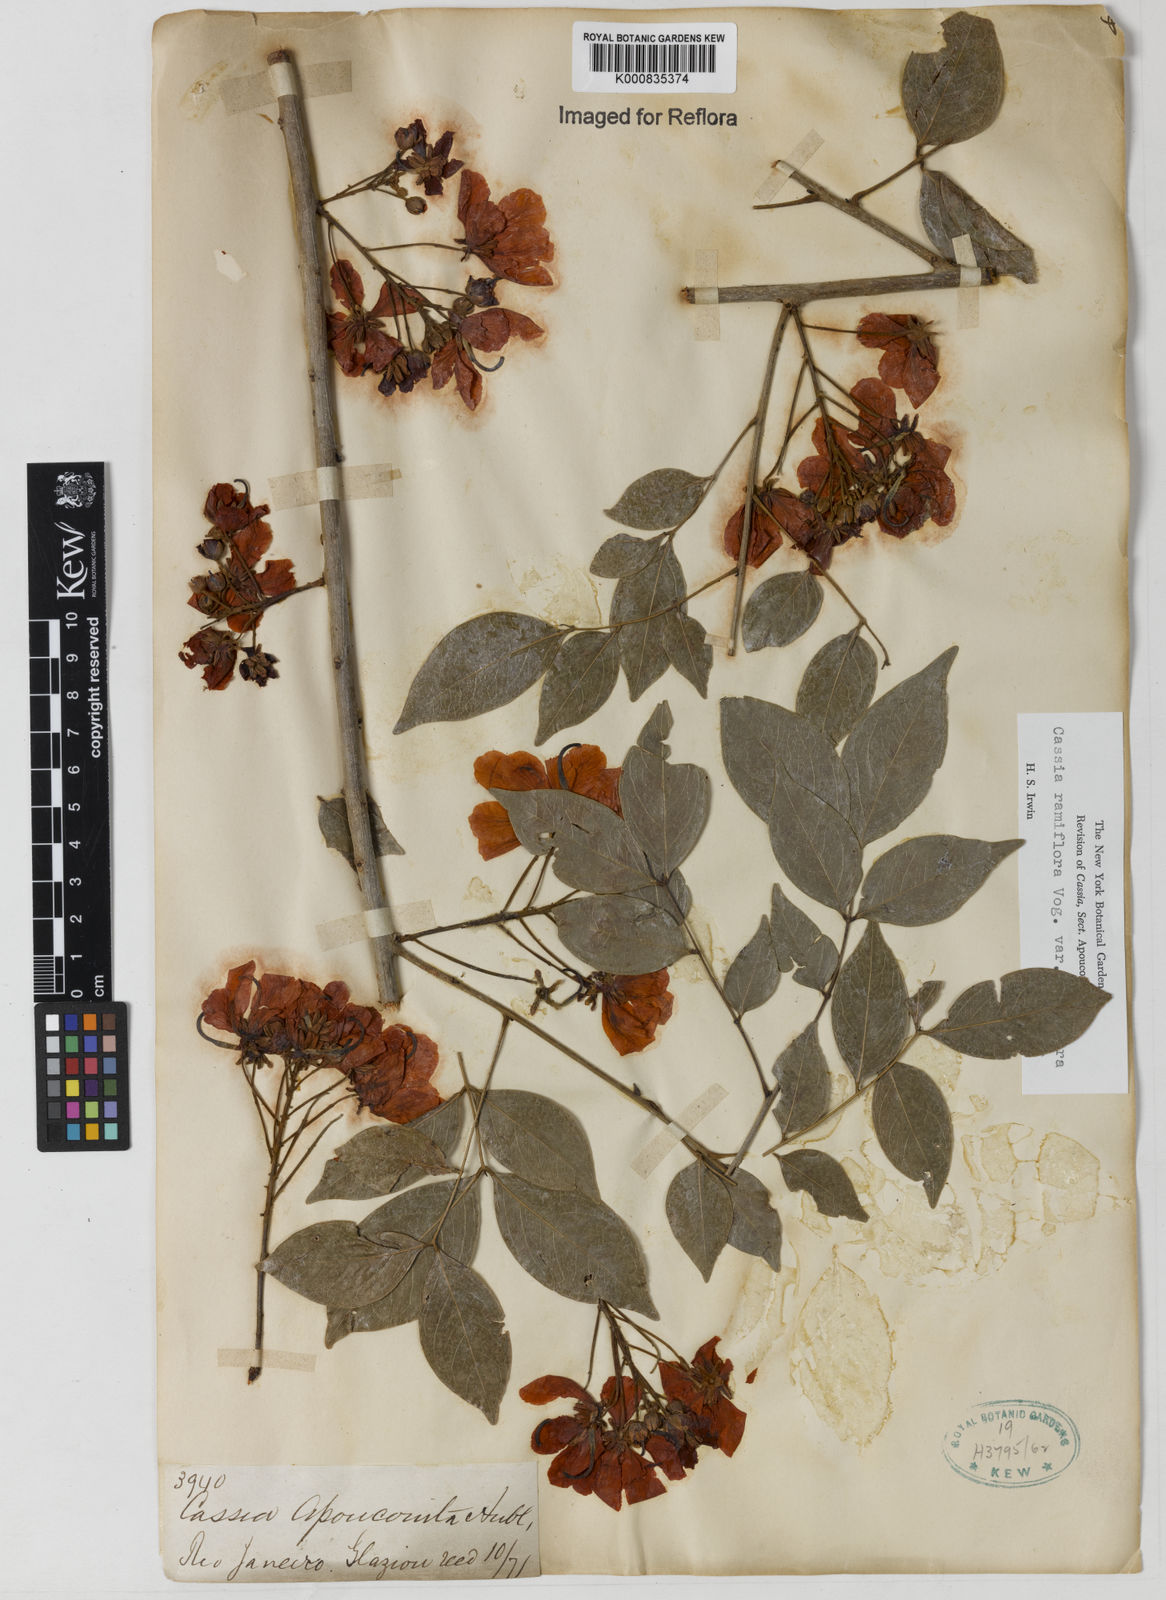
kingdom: Plantae
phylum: Tracheophyta
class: Magnoliopsida
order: Fabales
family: Fabaceae
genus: Chamaecrista
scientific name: Chamaecrista ensiformis
